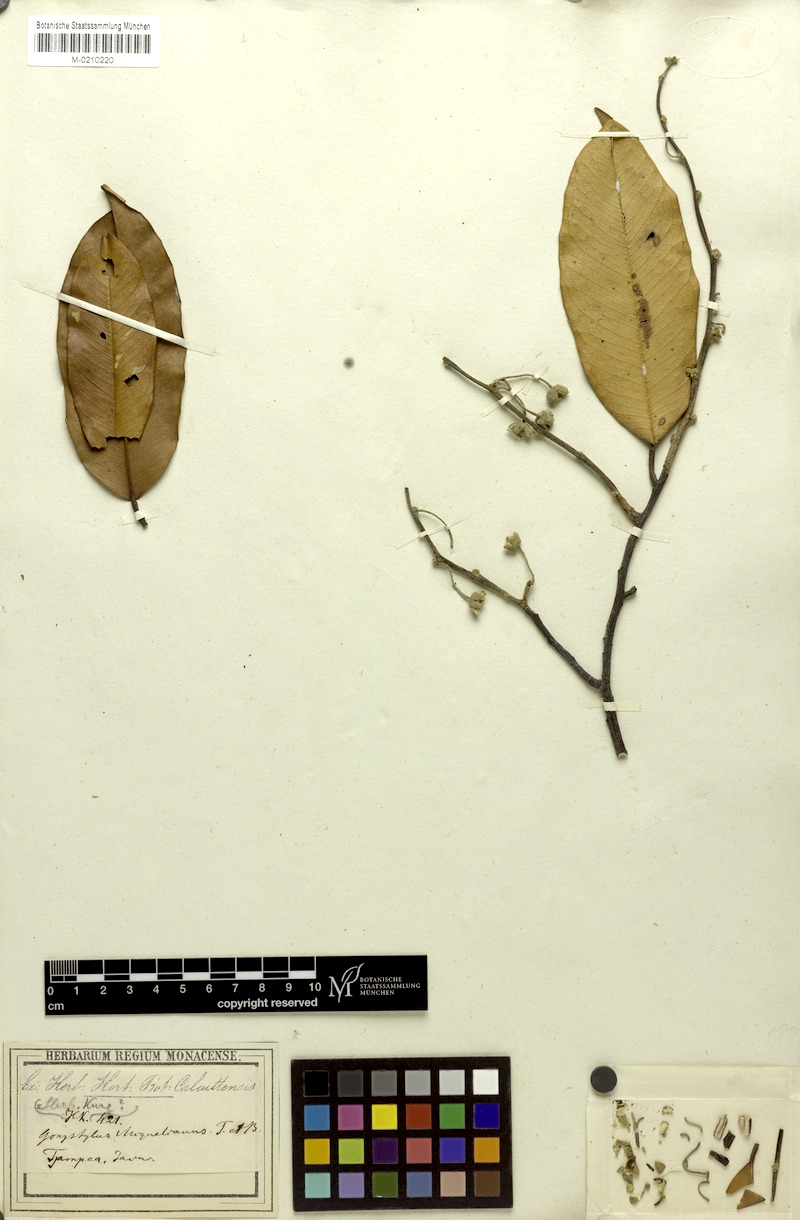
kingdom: Plantae
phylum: Tracheophyta
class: Magnoliopsida
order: Malvales
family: Thymelaeaceae
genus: Gonystylus
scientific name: Gonystylus macrophyllus
